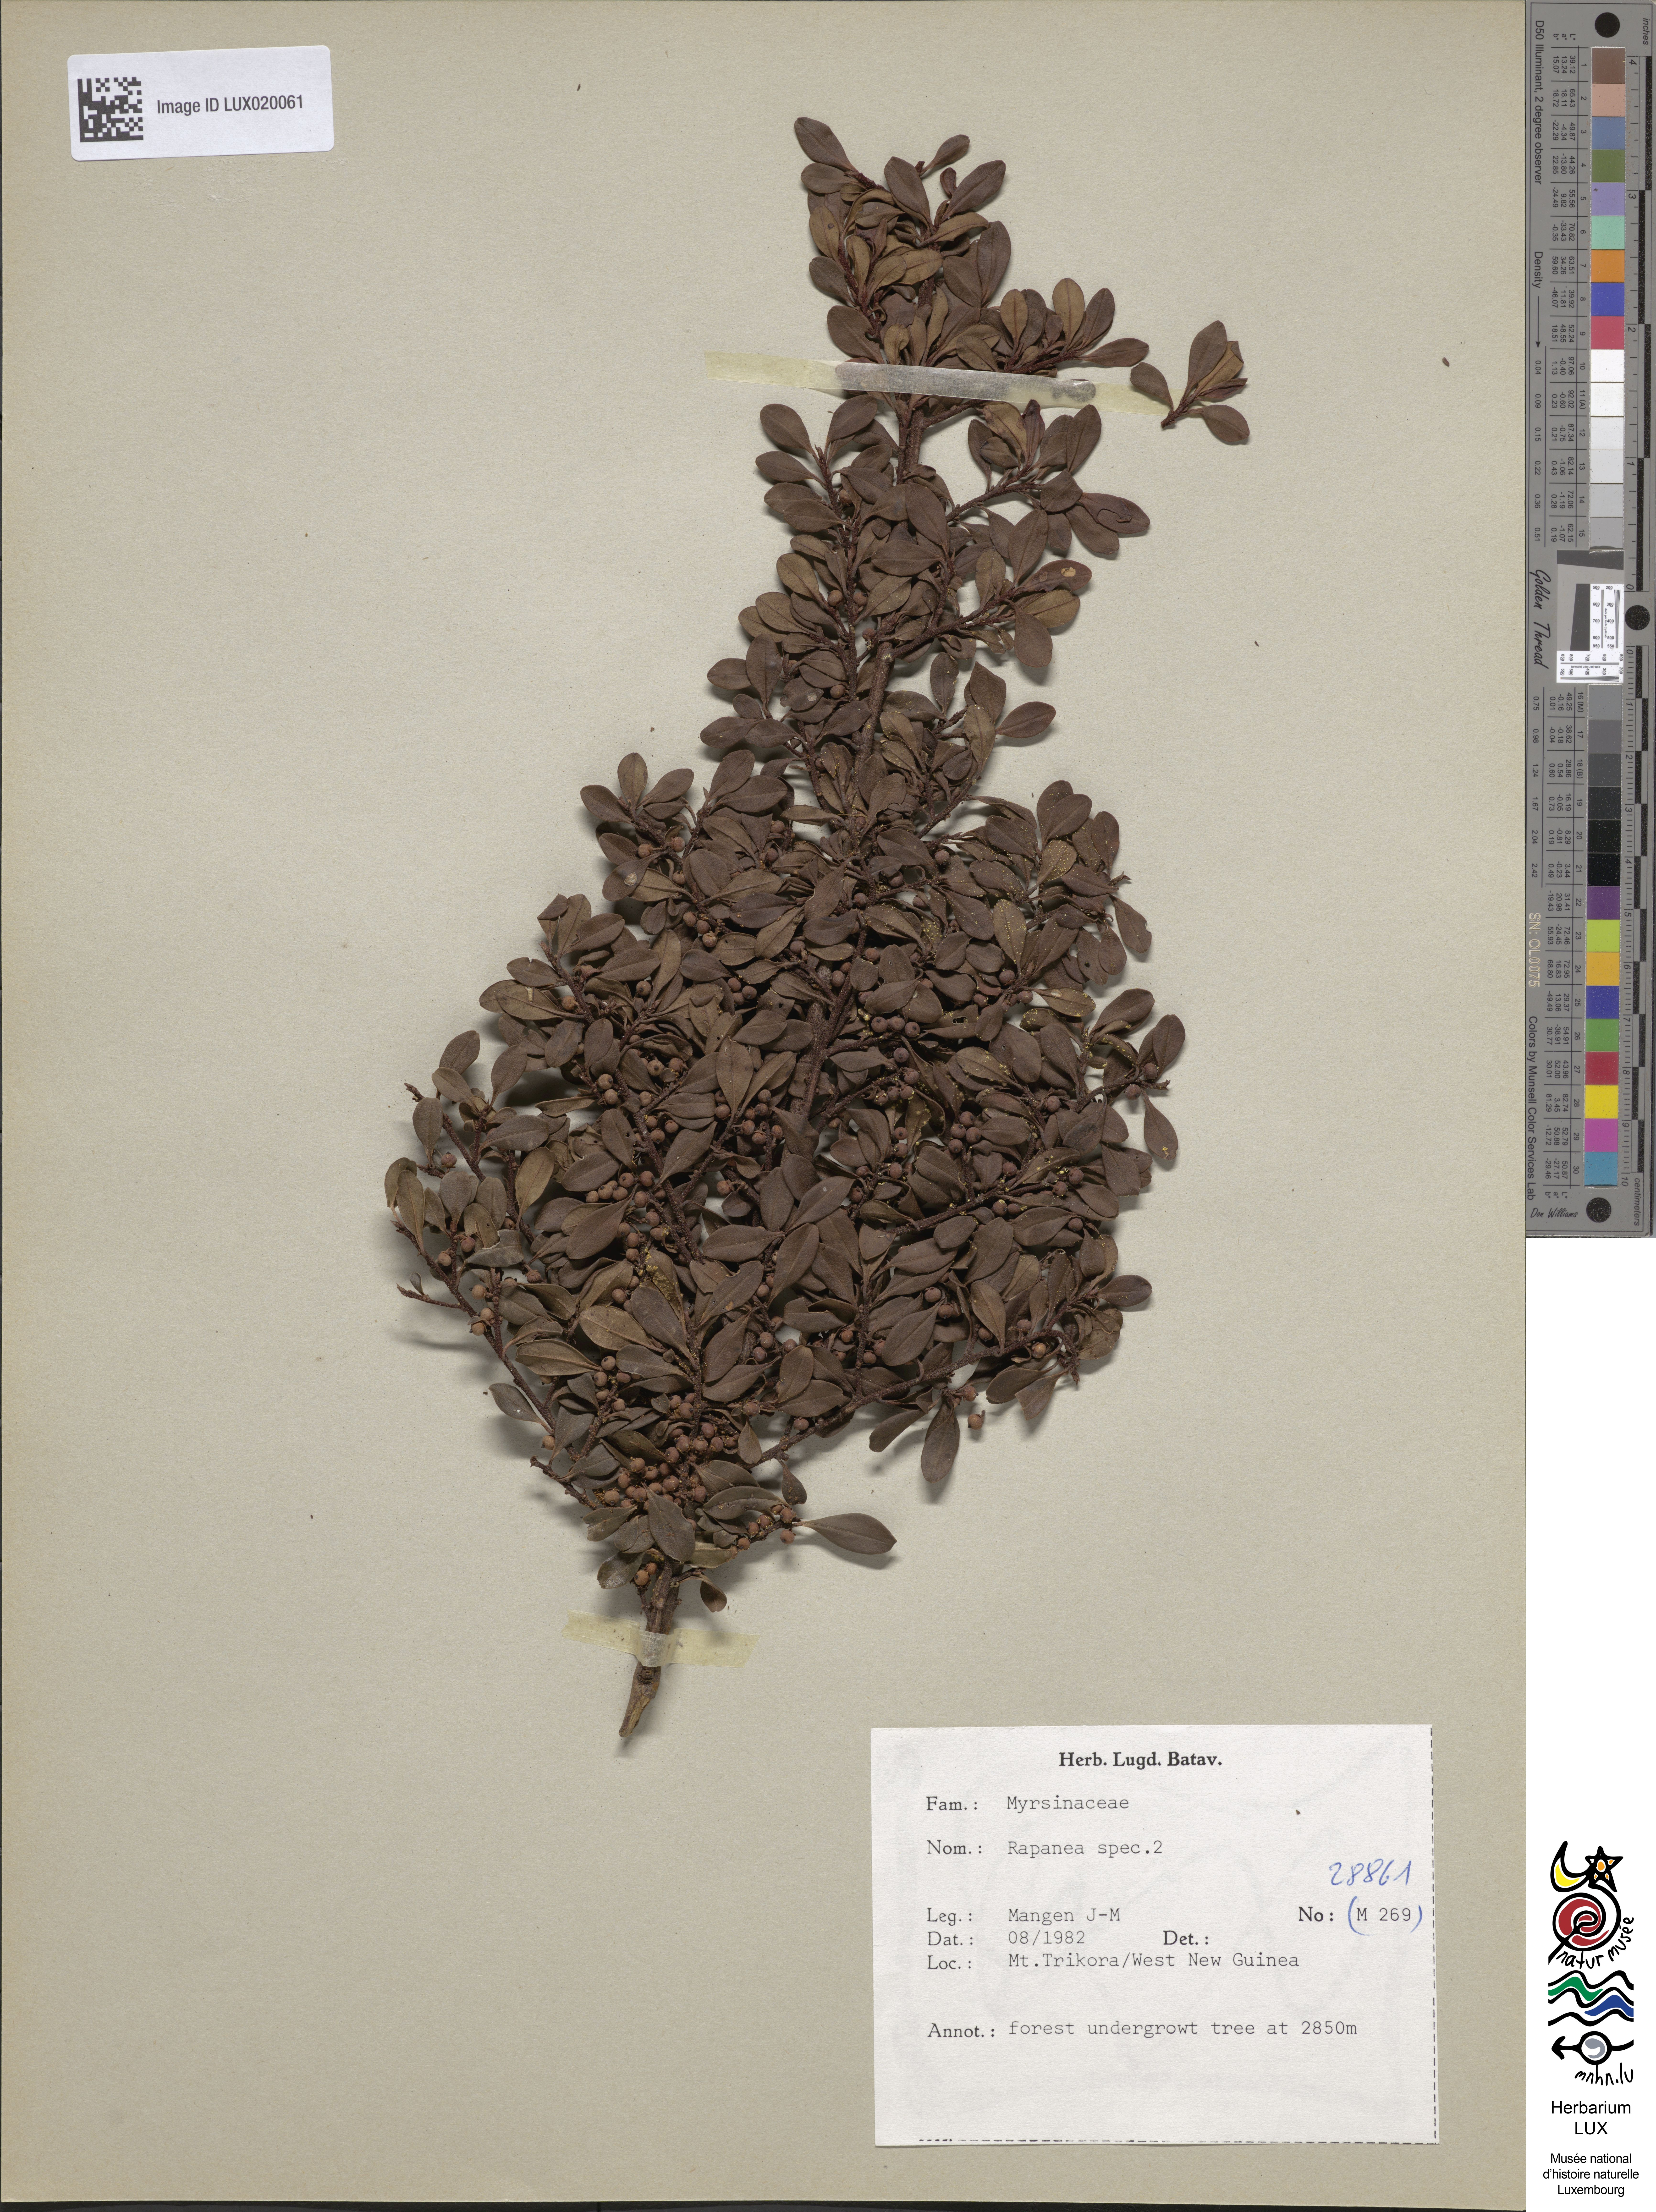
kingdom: Plantae
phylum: Tracheophyta
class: Magnoliopsida
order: Ericales
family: Primulaceae
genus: Myrsine
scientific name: Myrsine
